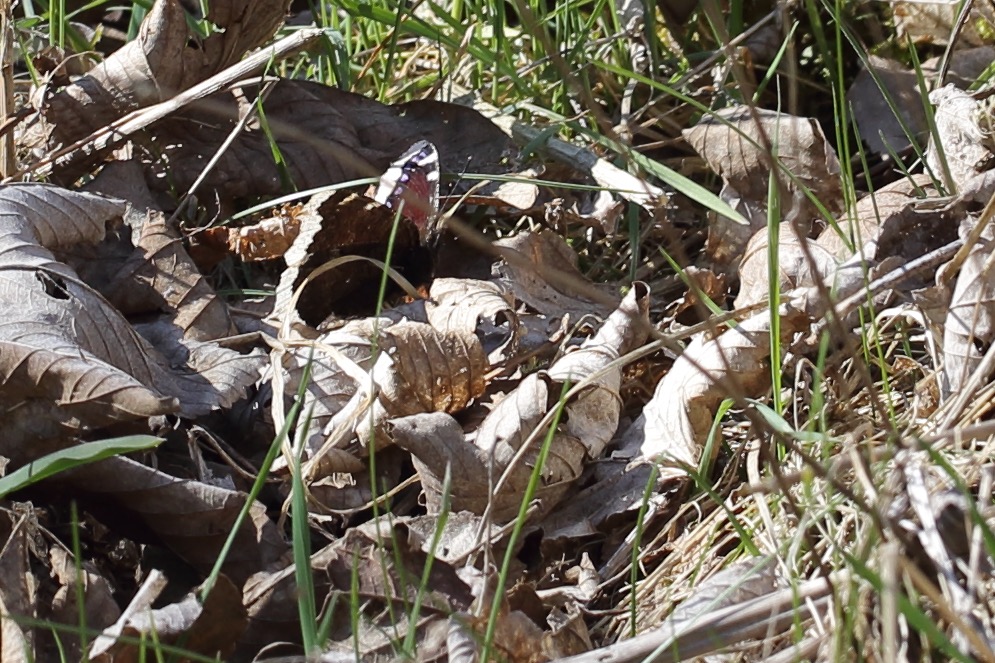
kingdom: Animalia
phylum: Arthropoda
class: Insecta
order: Lepidoptera
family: Nymphalidae
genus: Nymphalis
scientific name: Nymphalis antiopa
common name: Sørgekåbe
